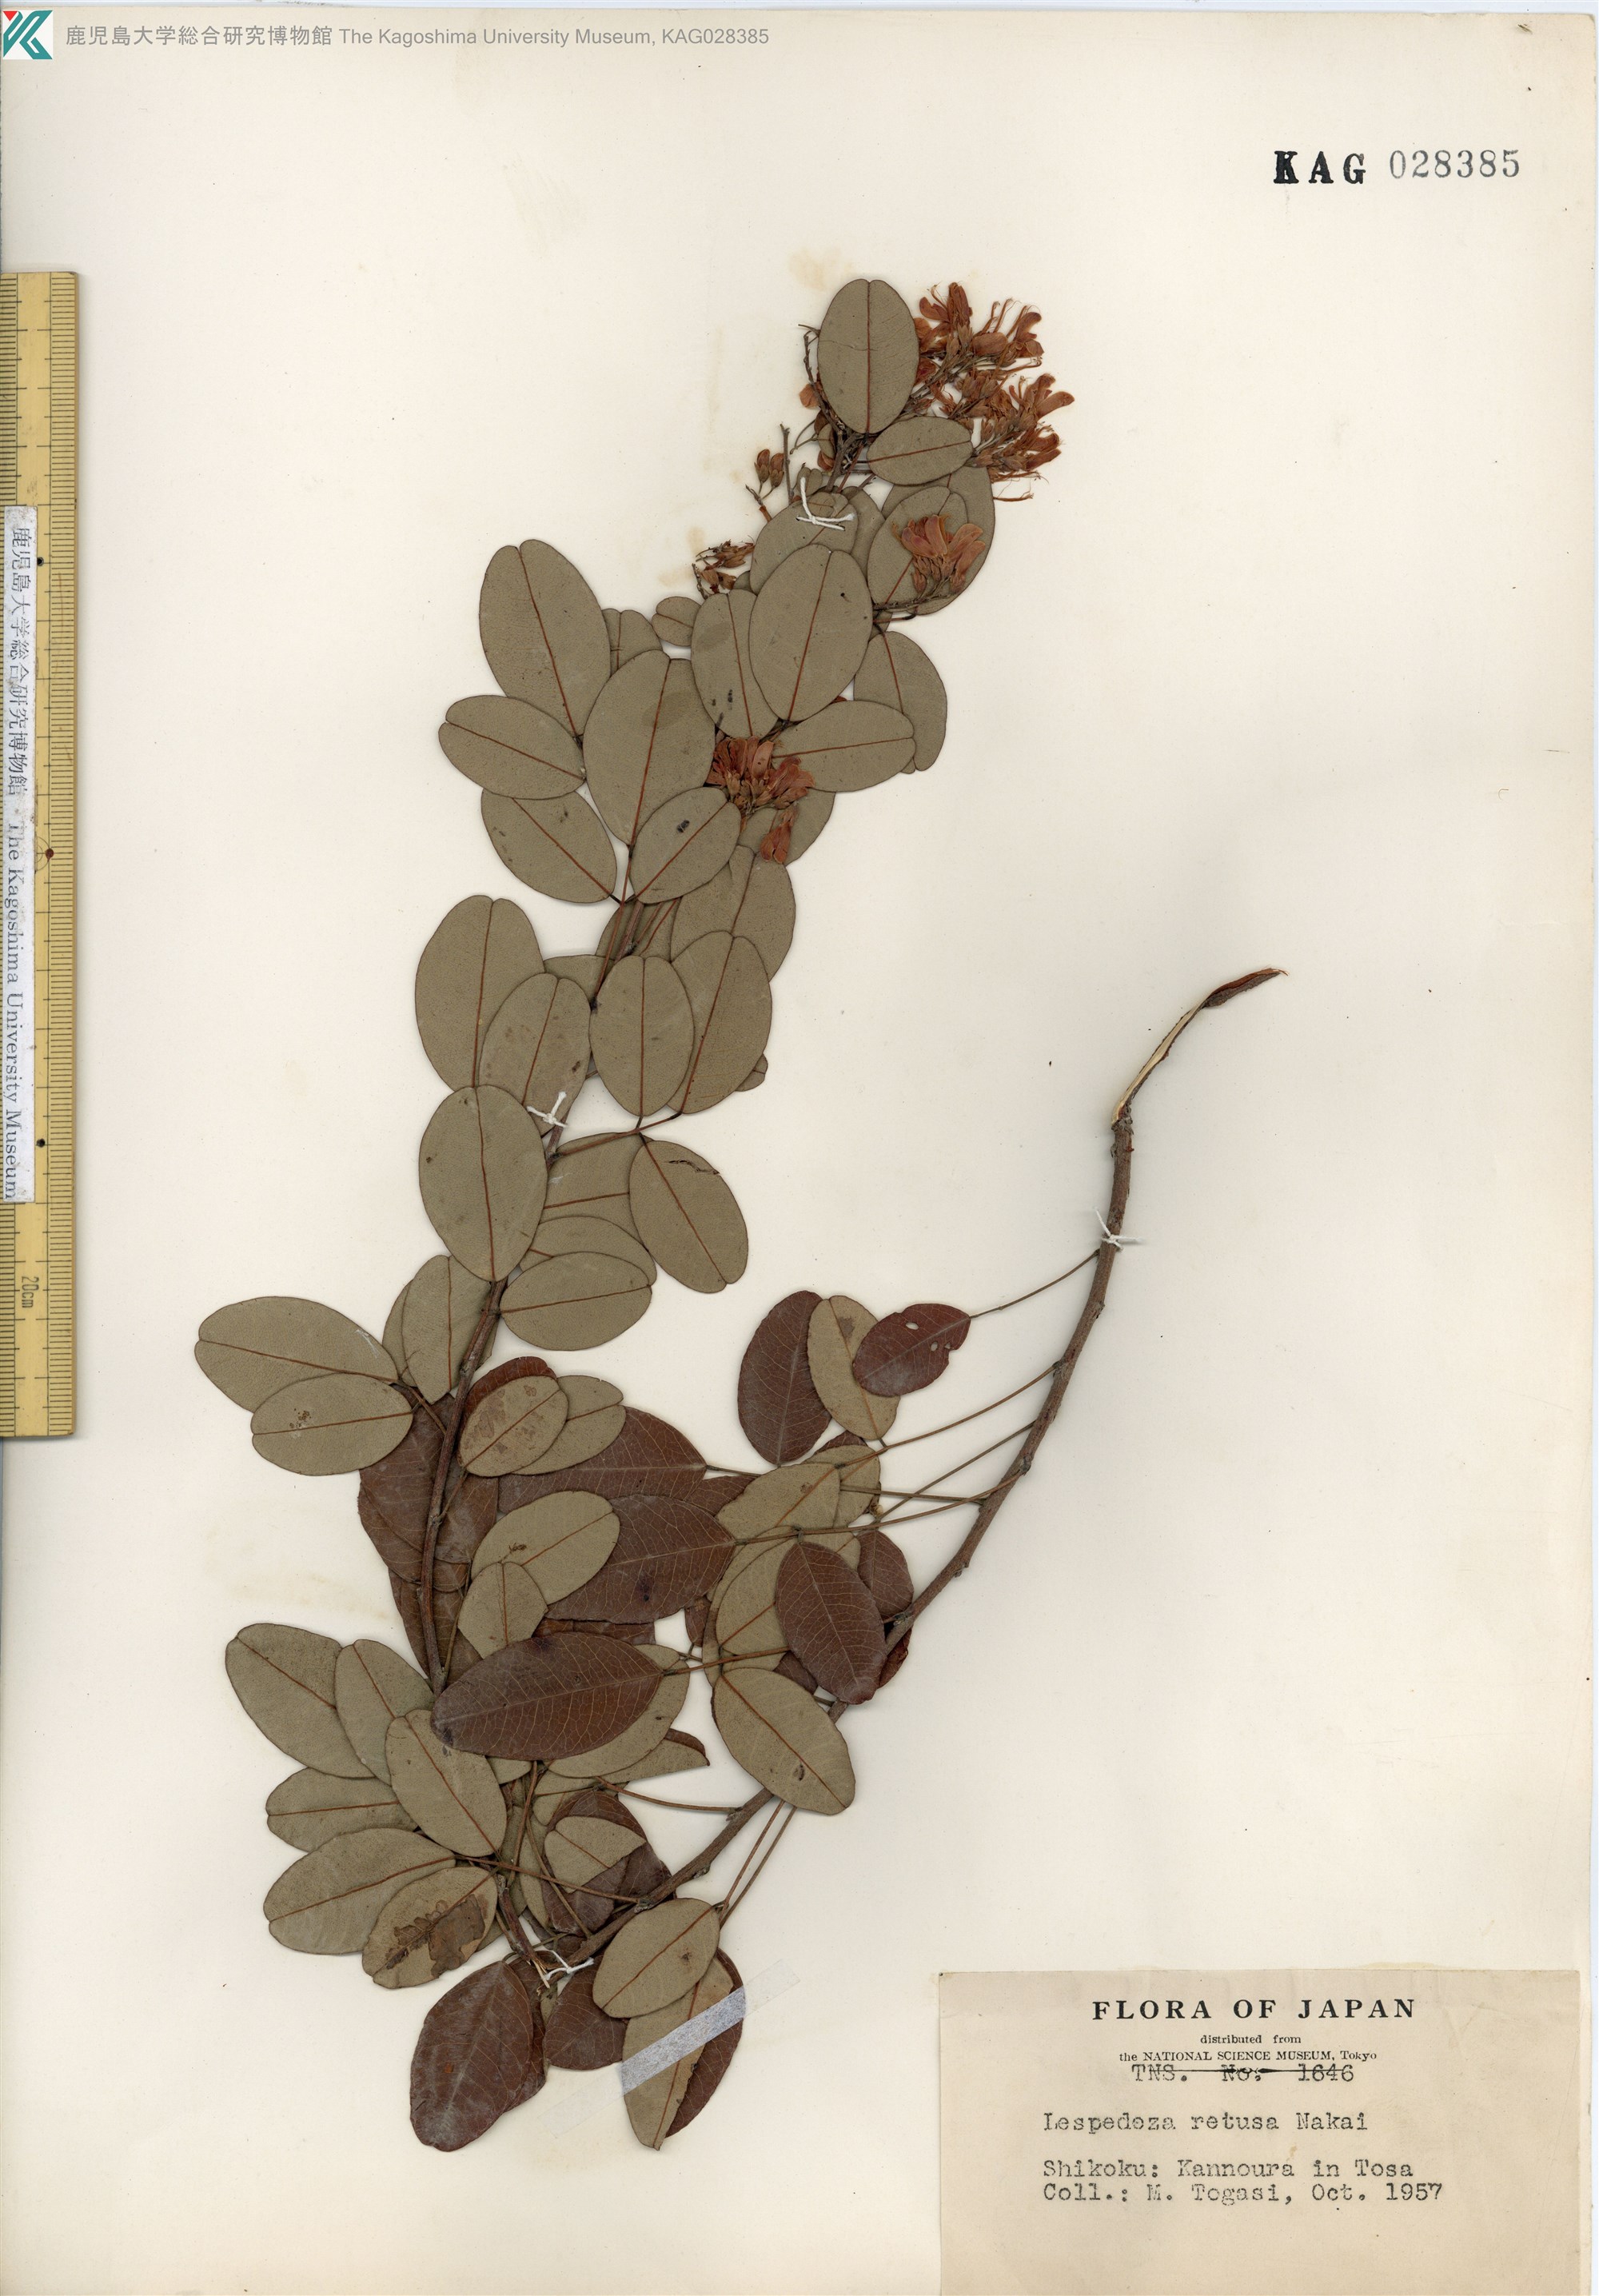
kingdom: Plantae
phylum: Tracheophyta
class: Magnoliopsida
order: Fabales
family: Fabaceae
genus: Lespedeza
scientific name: Lespedeza homoloba
